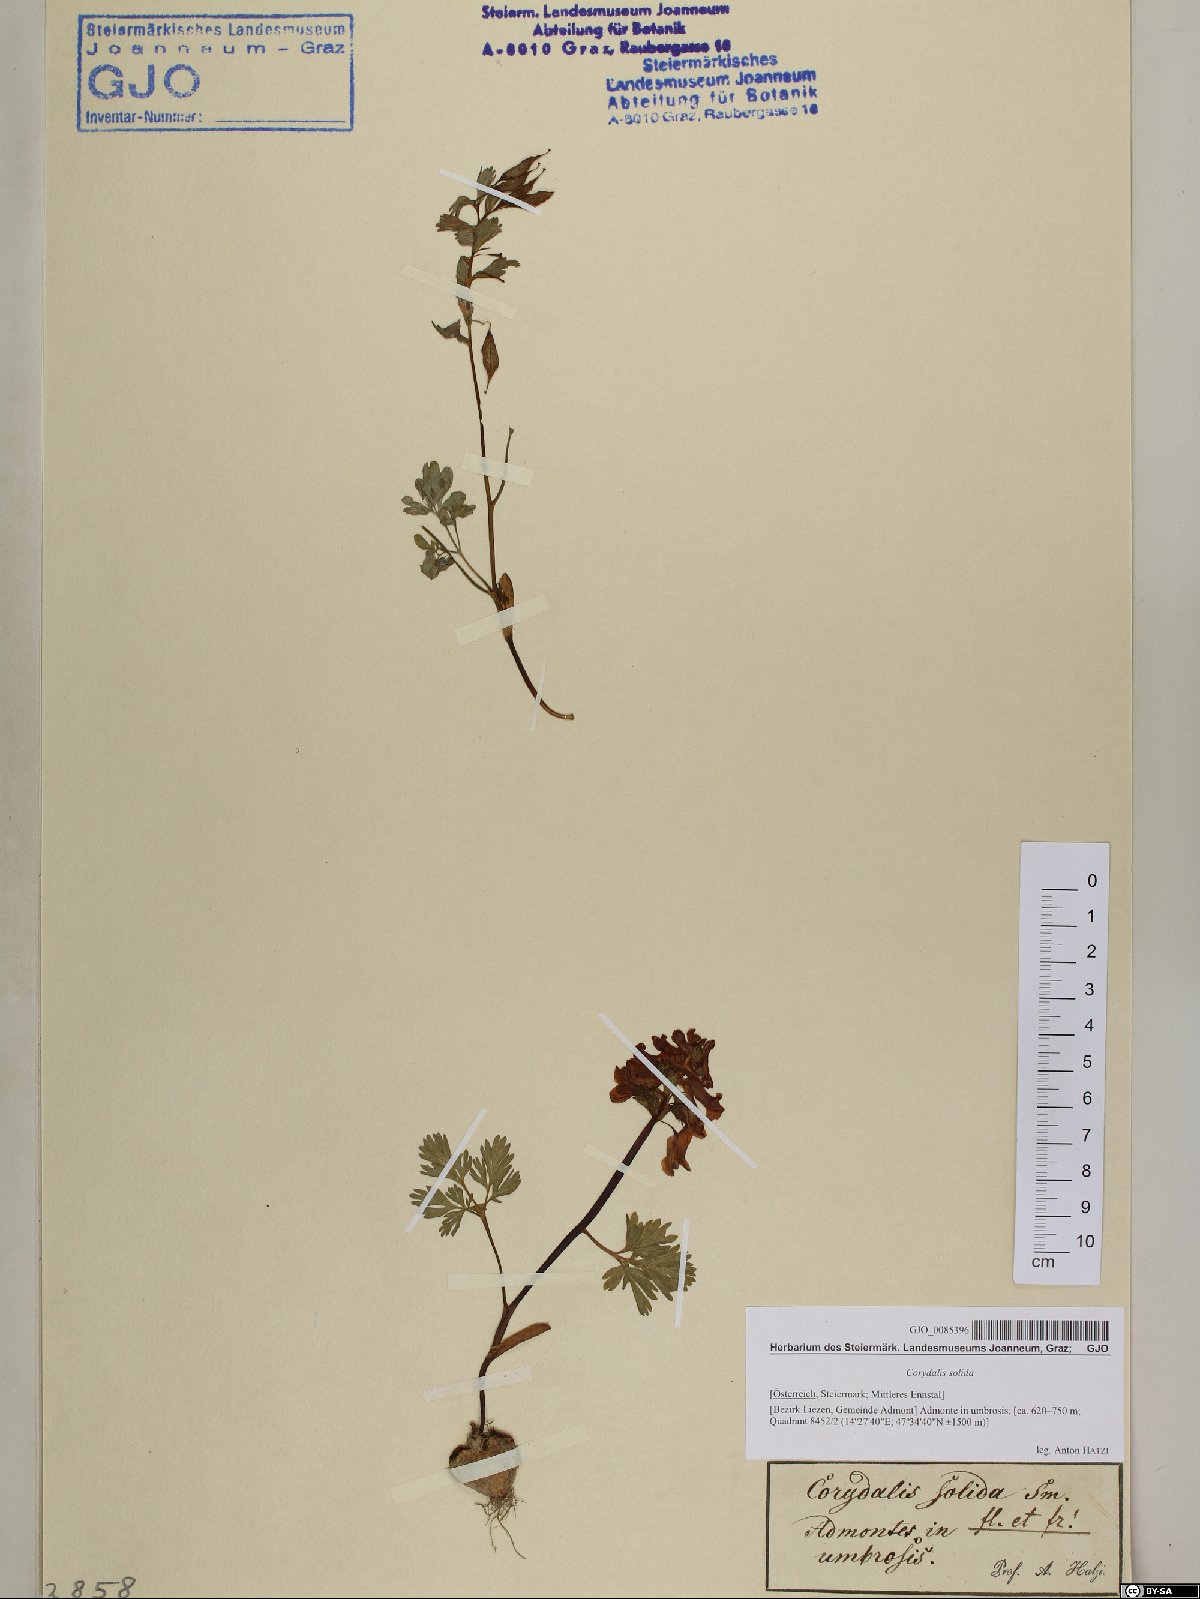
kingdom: Plantae
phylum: Tracheophyta
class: Magnoliopsida
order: Ranunculales
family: Papaveraceae
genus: Corydalis
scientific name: Corydalis solida
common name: Bird-in-a-bush
